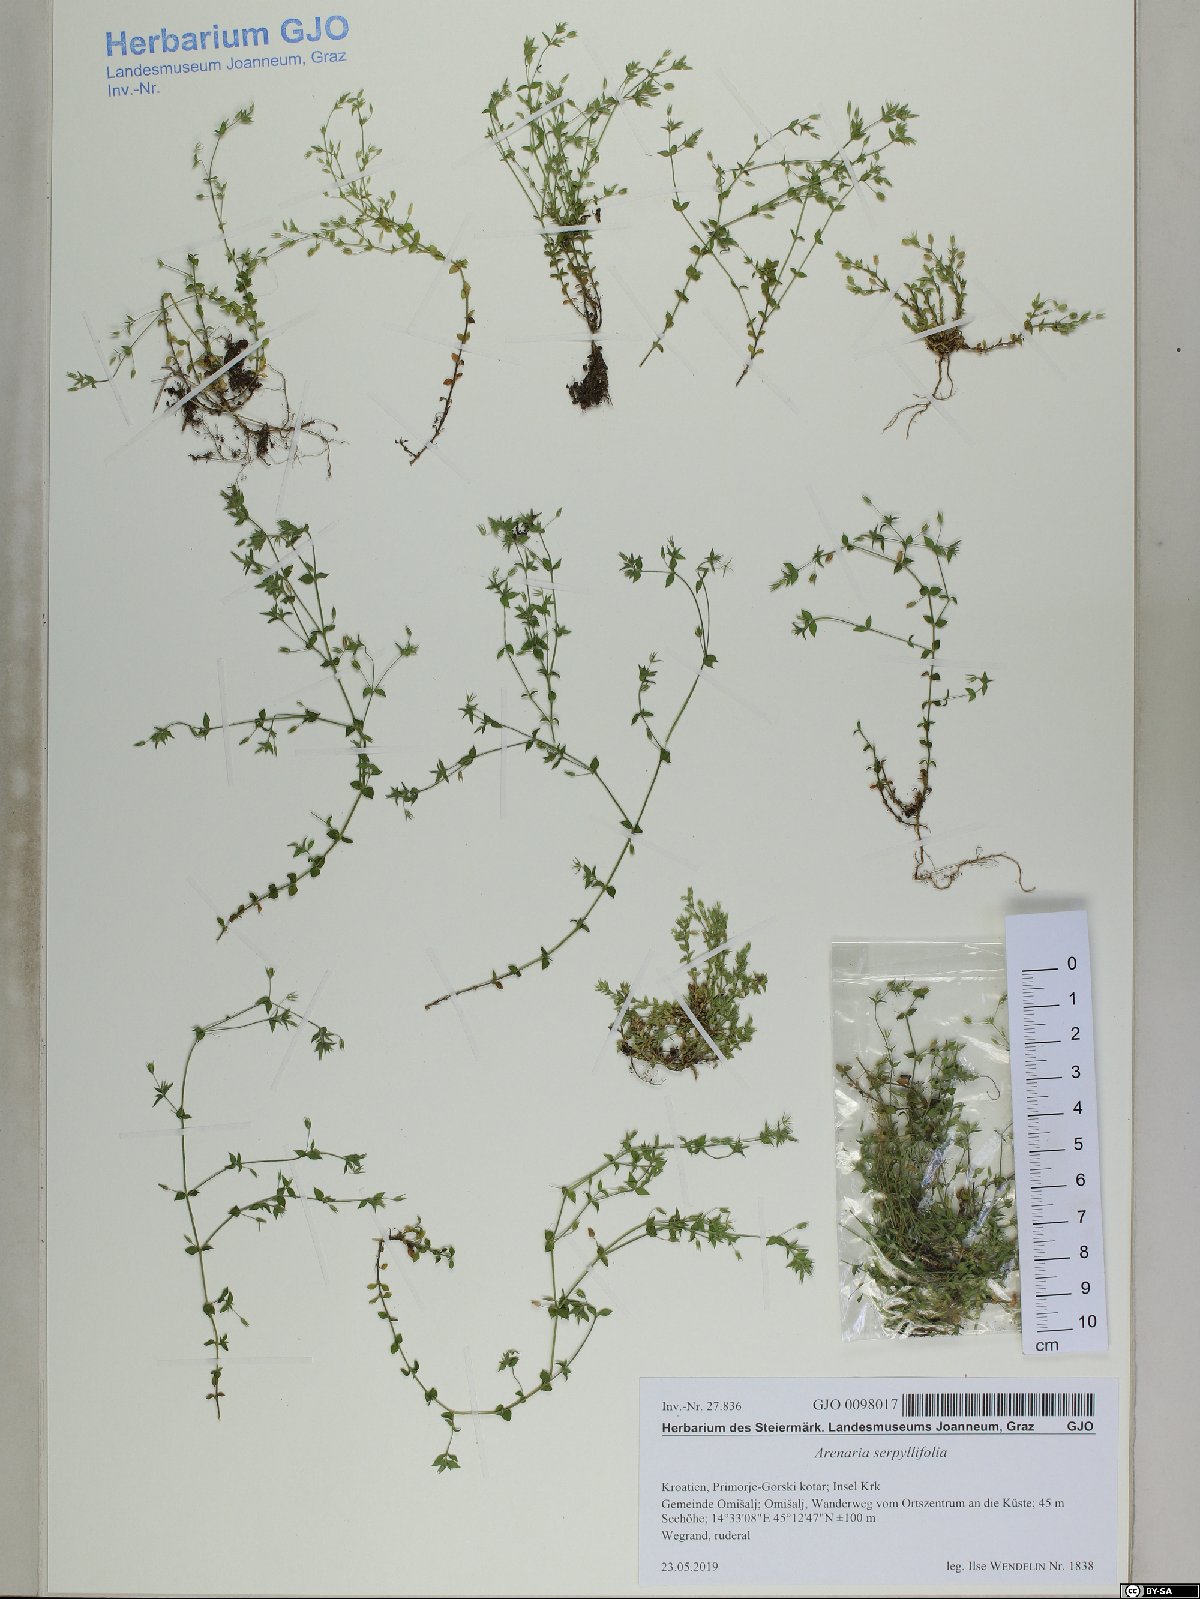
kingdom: Plantae
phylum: Tracheophyta
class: Magnoliopsida
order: Caryophyllales
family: Caryophyllaceae
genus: Arenaria
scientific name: Arenaria serpyllifolia
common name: Thyme-leaved sandwort
